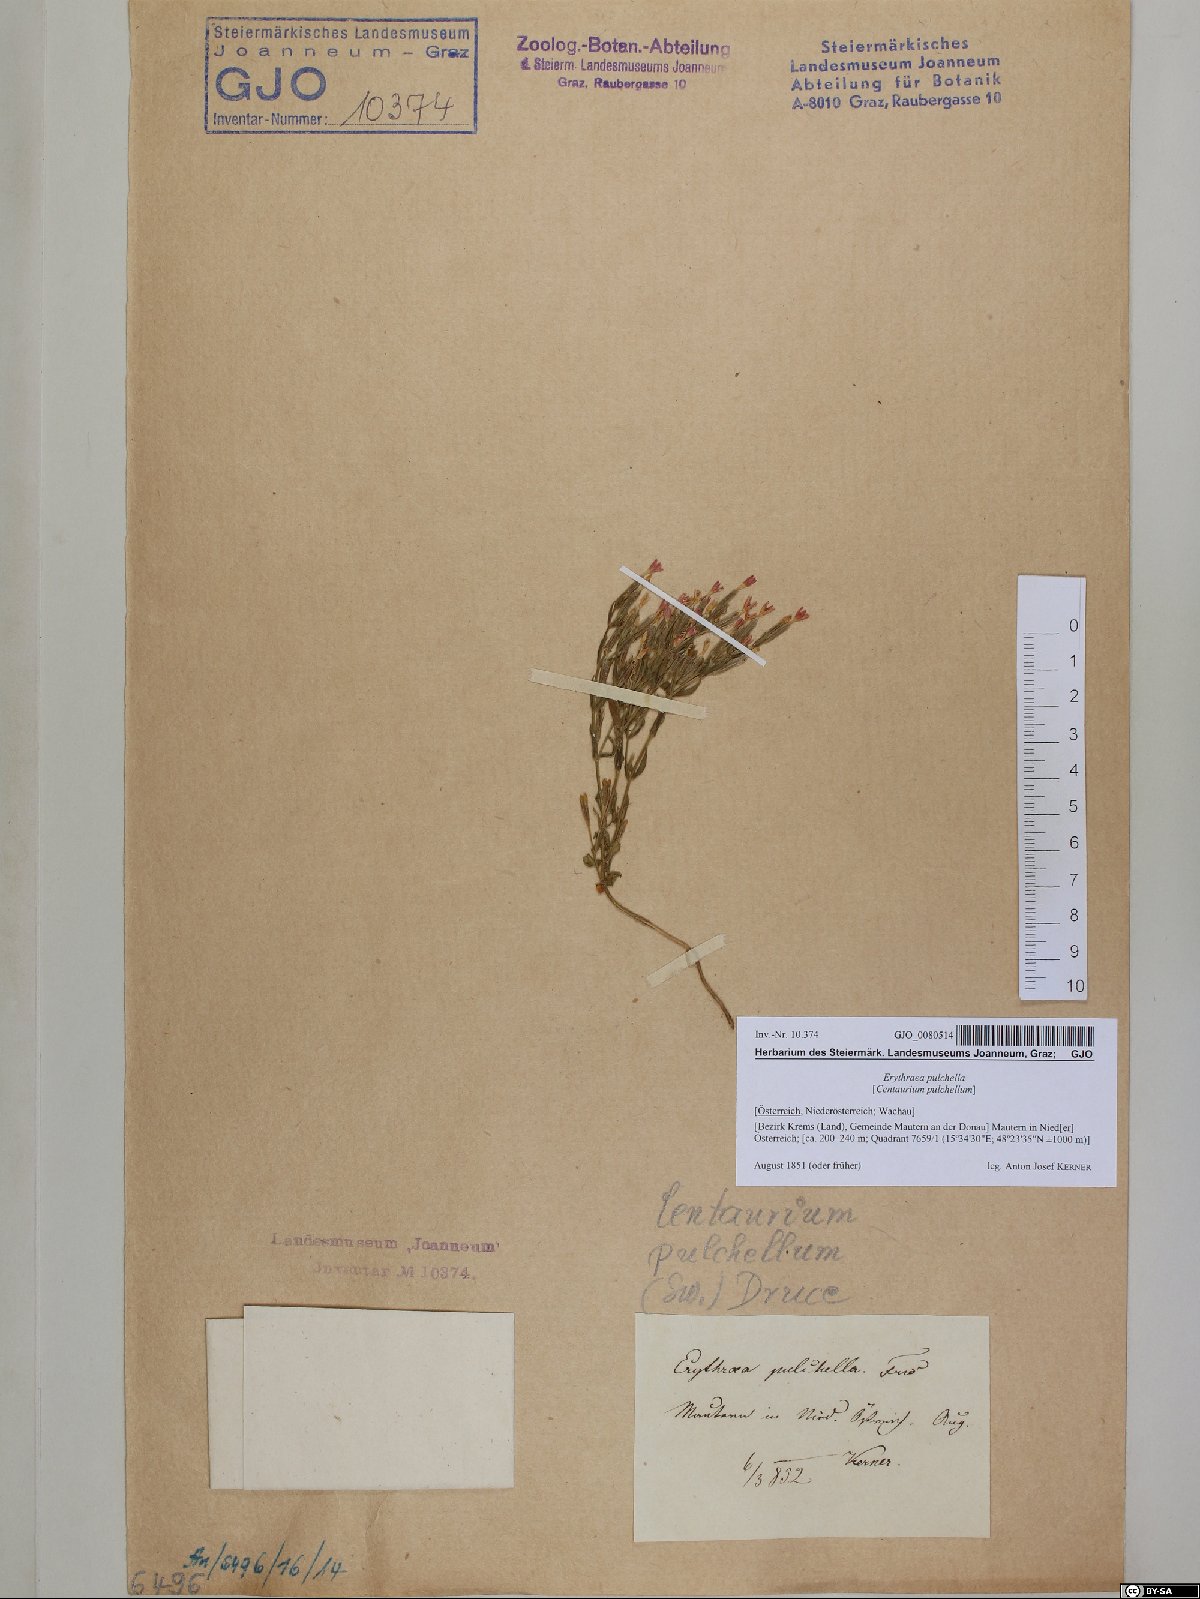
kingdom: Plantae
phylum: Tracheophyta
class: Magnoliopsida
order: Gentianales
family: Gentianaceae
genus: Centaurium
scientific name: Centaurium pulchellum
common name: Lesser centaury
